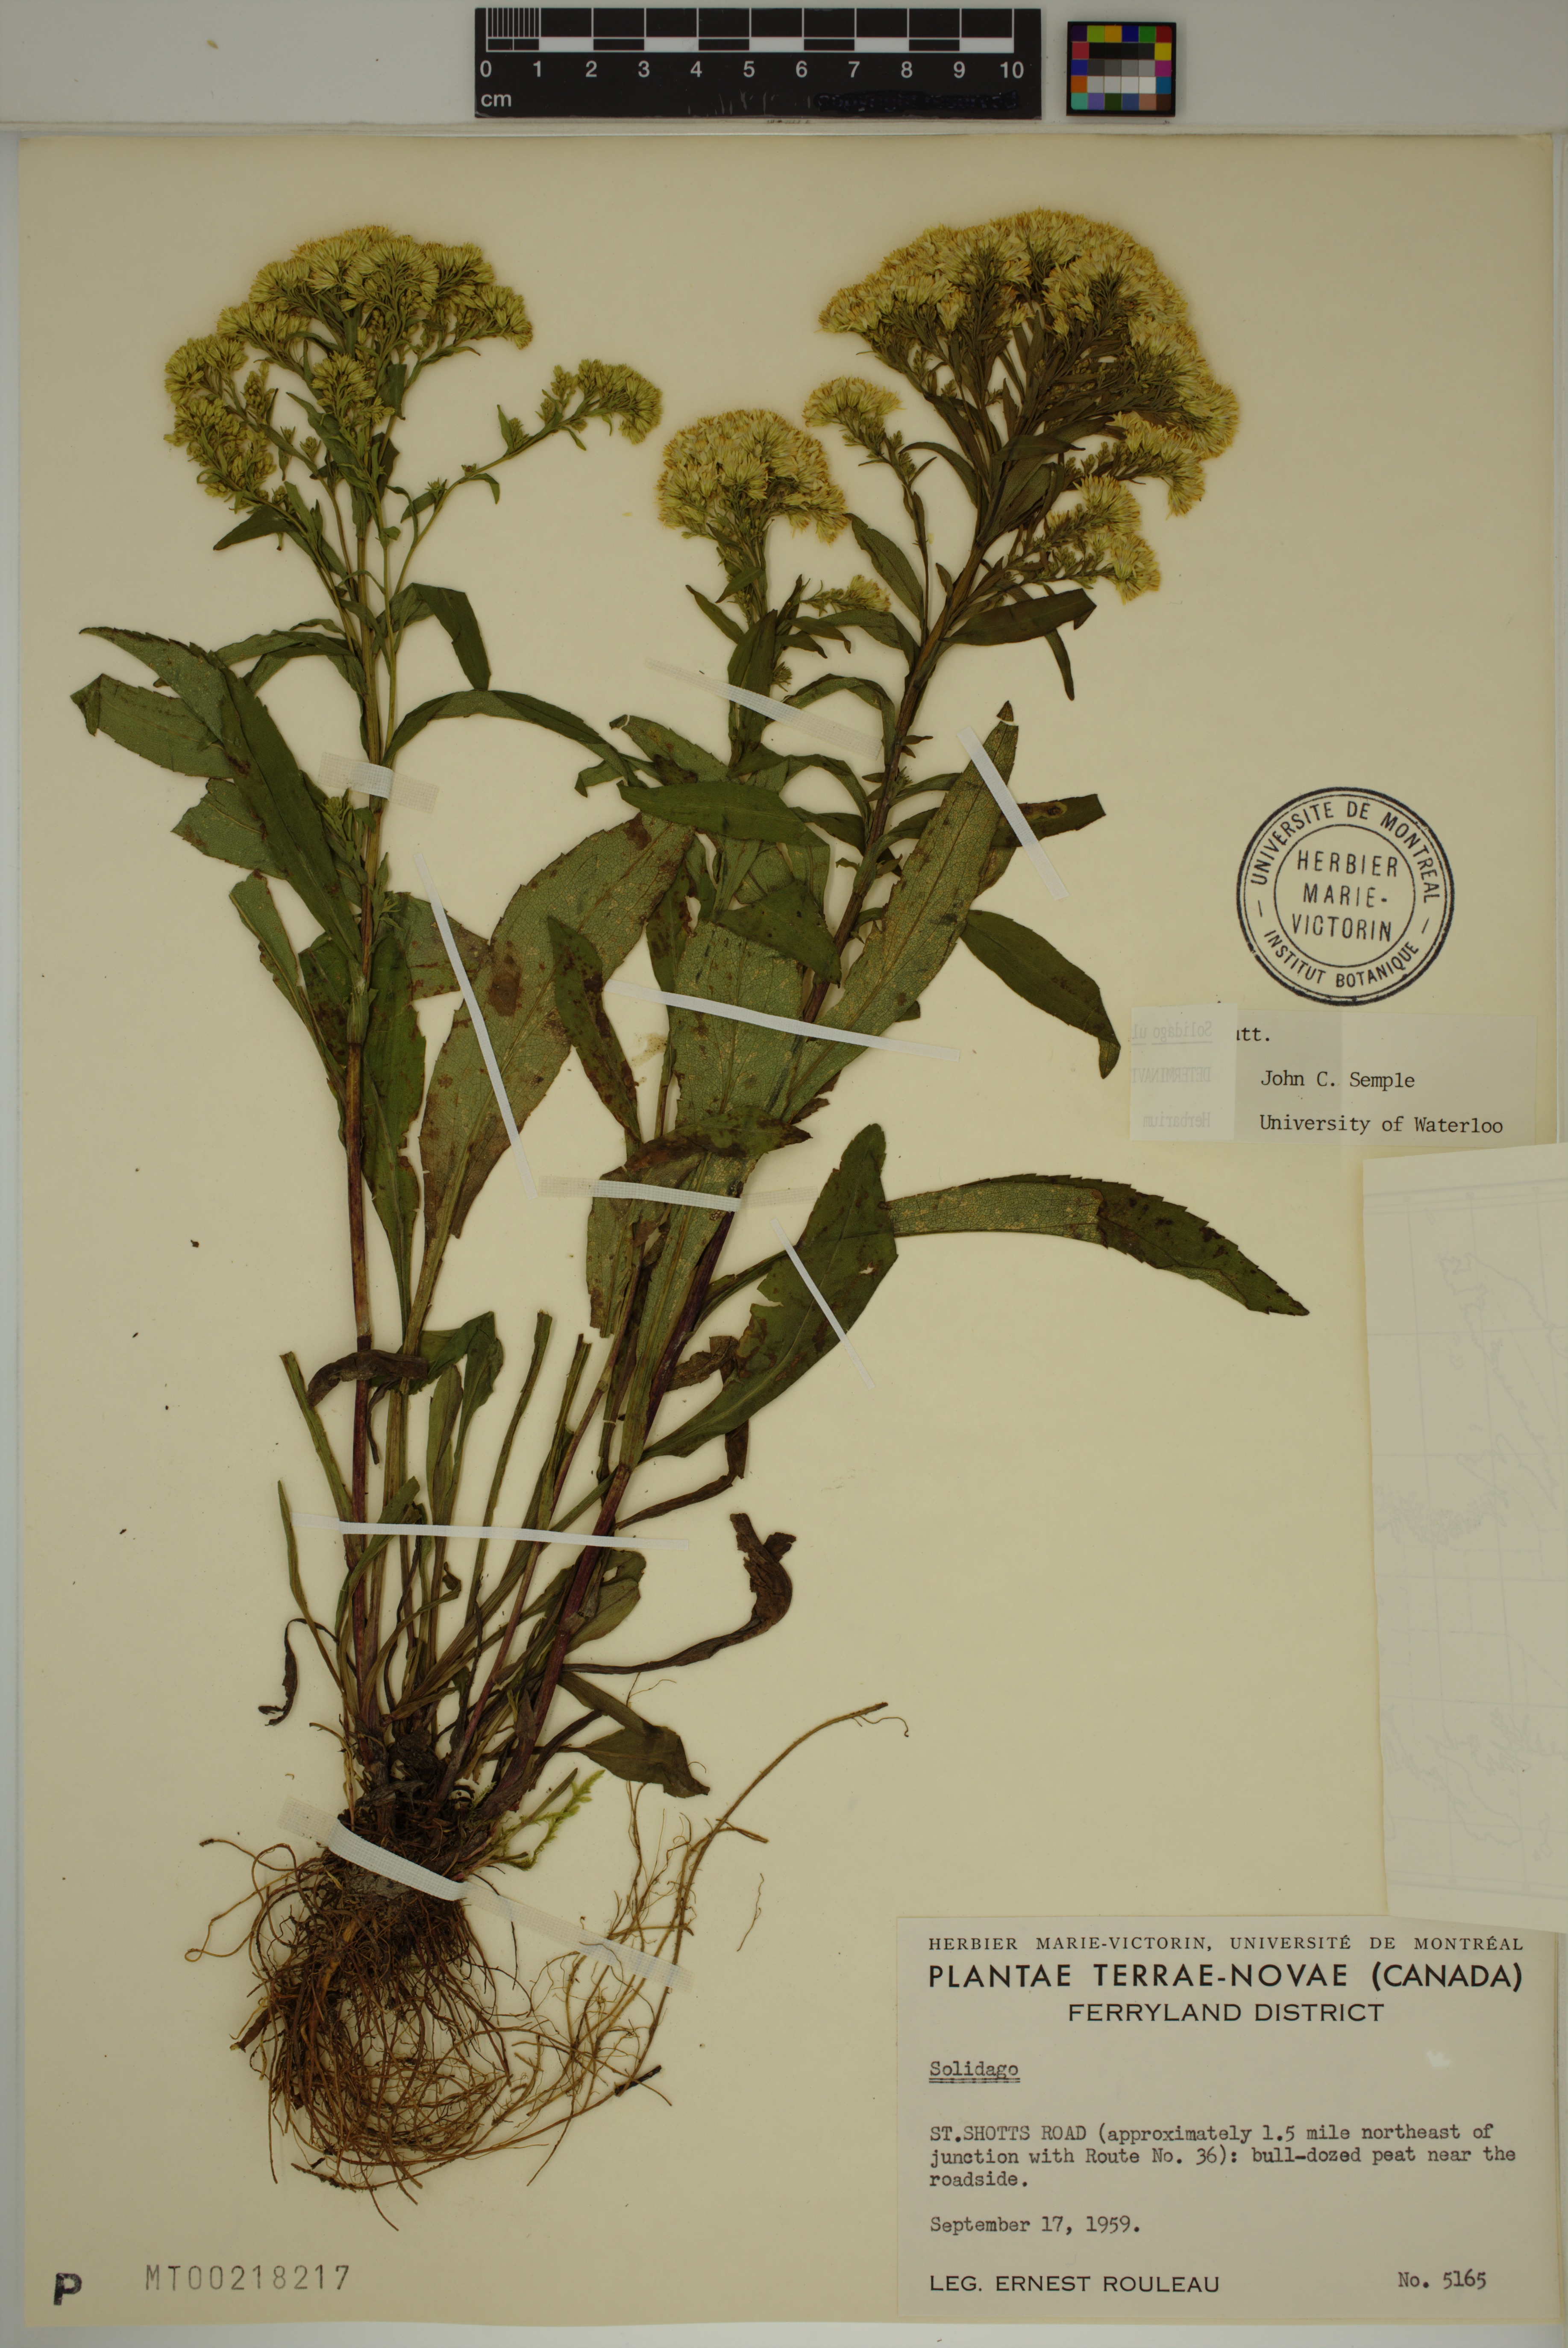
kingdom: Plantae
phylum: Tracheophyta
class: Magnoliopsida
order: Asterales
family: Asteraceae
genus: Solidago
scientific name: Solidago uliginosa
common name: Bog goldenrod
